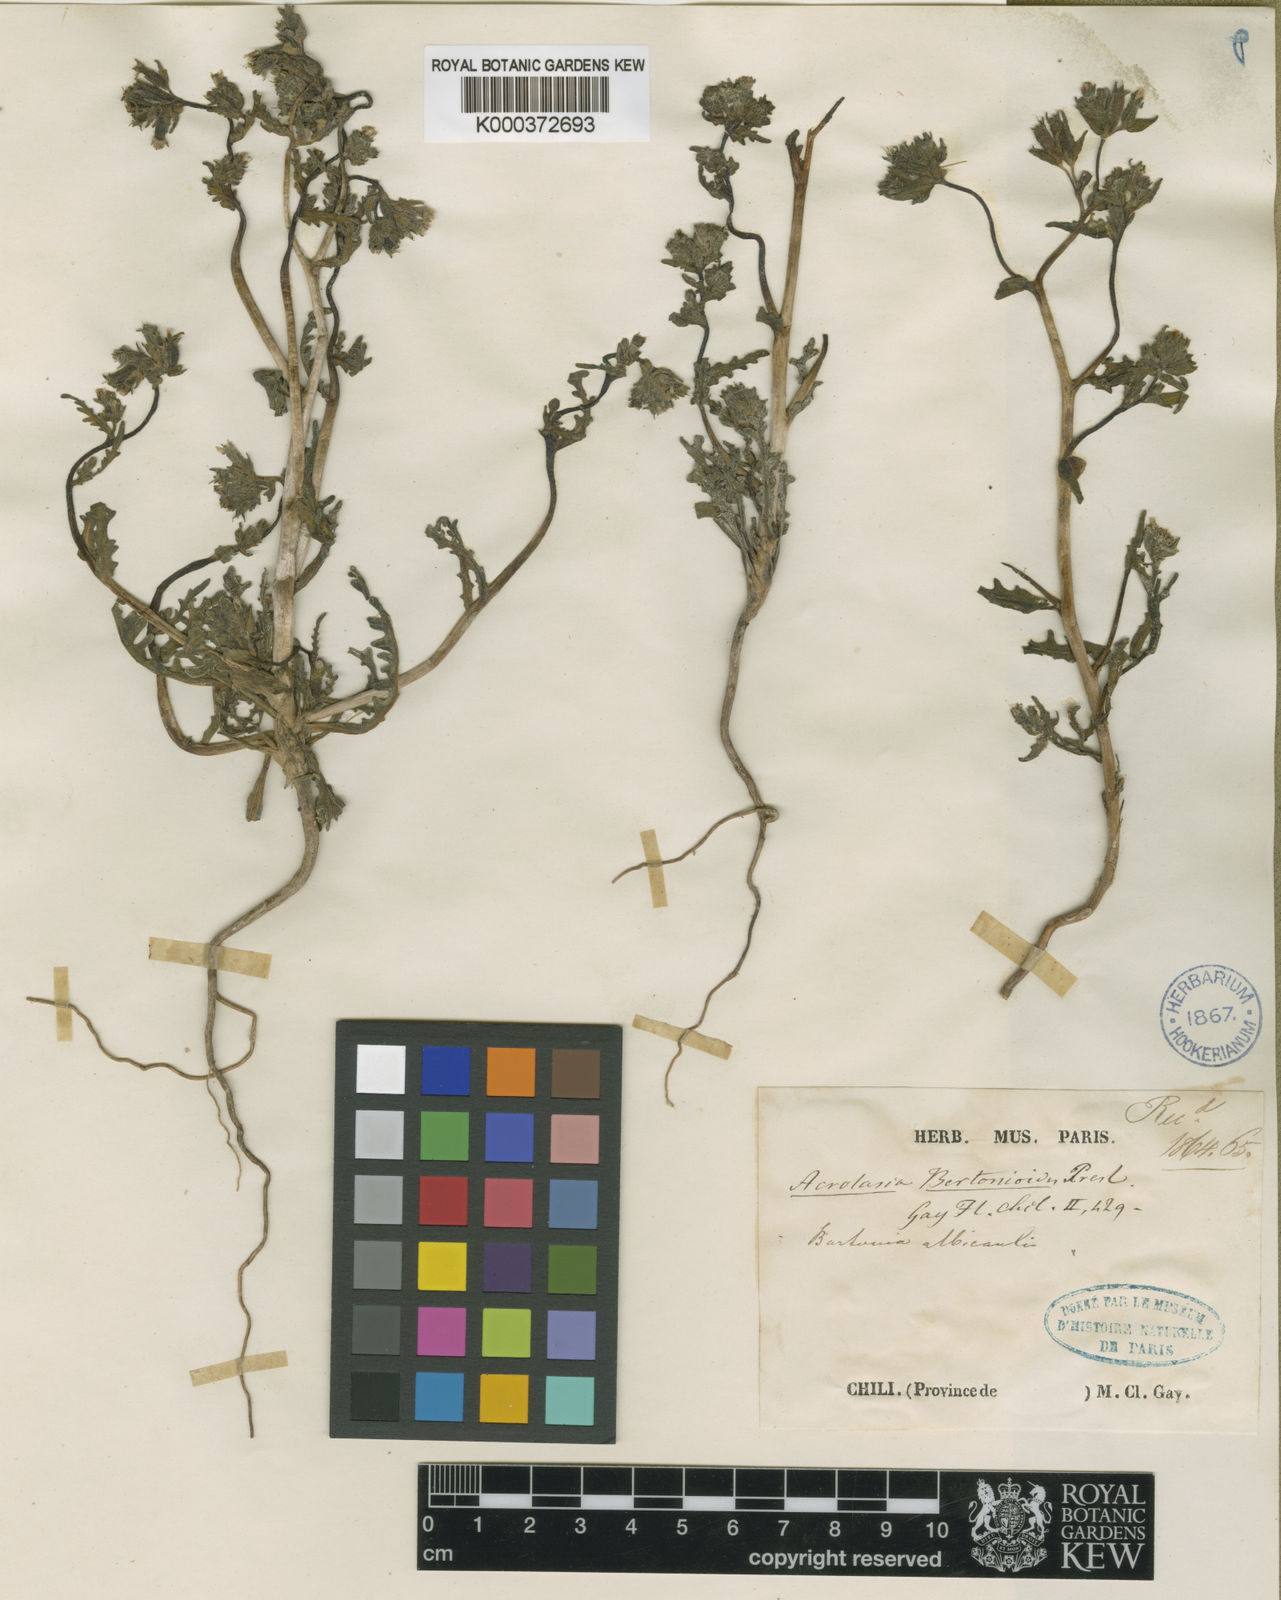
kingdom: Plantae
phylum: Tracheophyta
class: Magnoliopsida
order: Cornales
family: Loasaceae
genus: Mentzelia
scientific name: Mentzelia solieri
